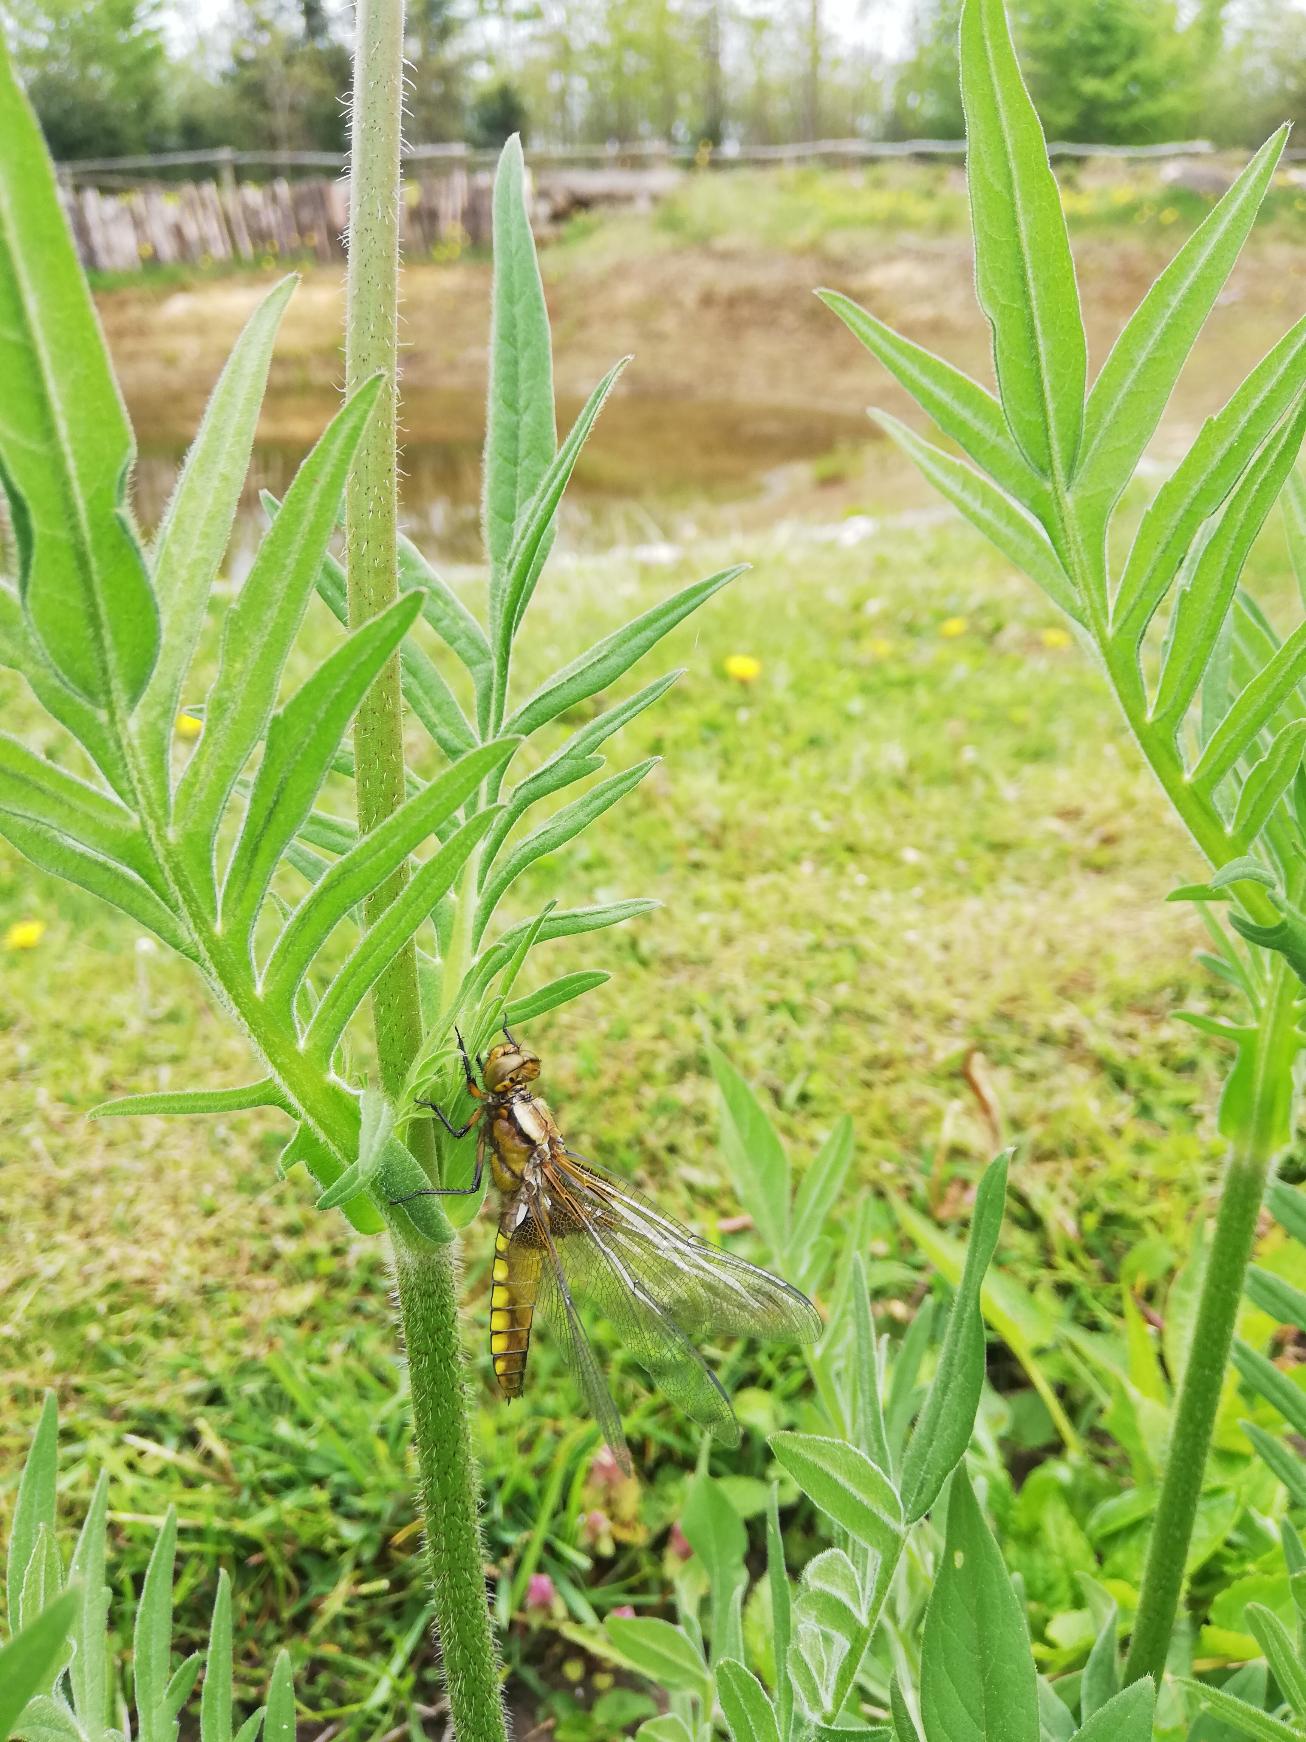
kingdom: Animalia
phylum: Arthropoda
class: Insecta
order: Odonata
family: Libellulidae
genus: Libellula
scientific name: Libellula depressa
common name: Blå libel
